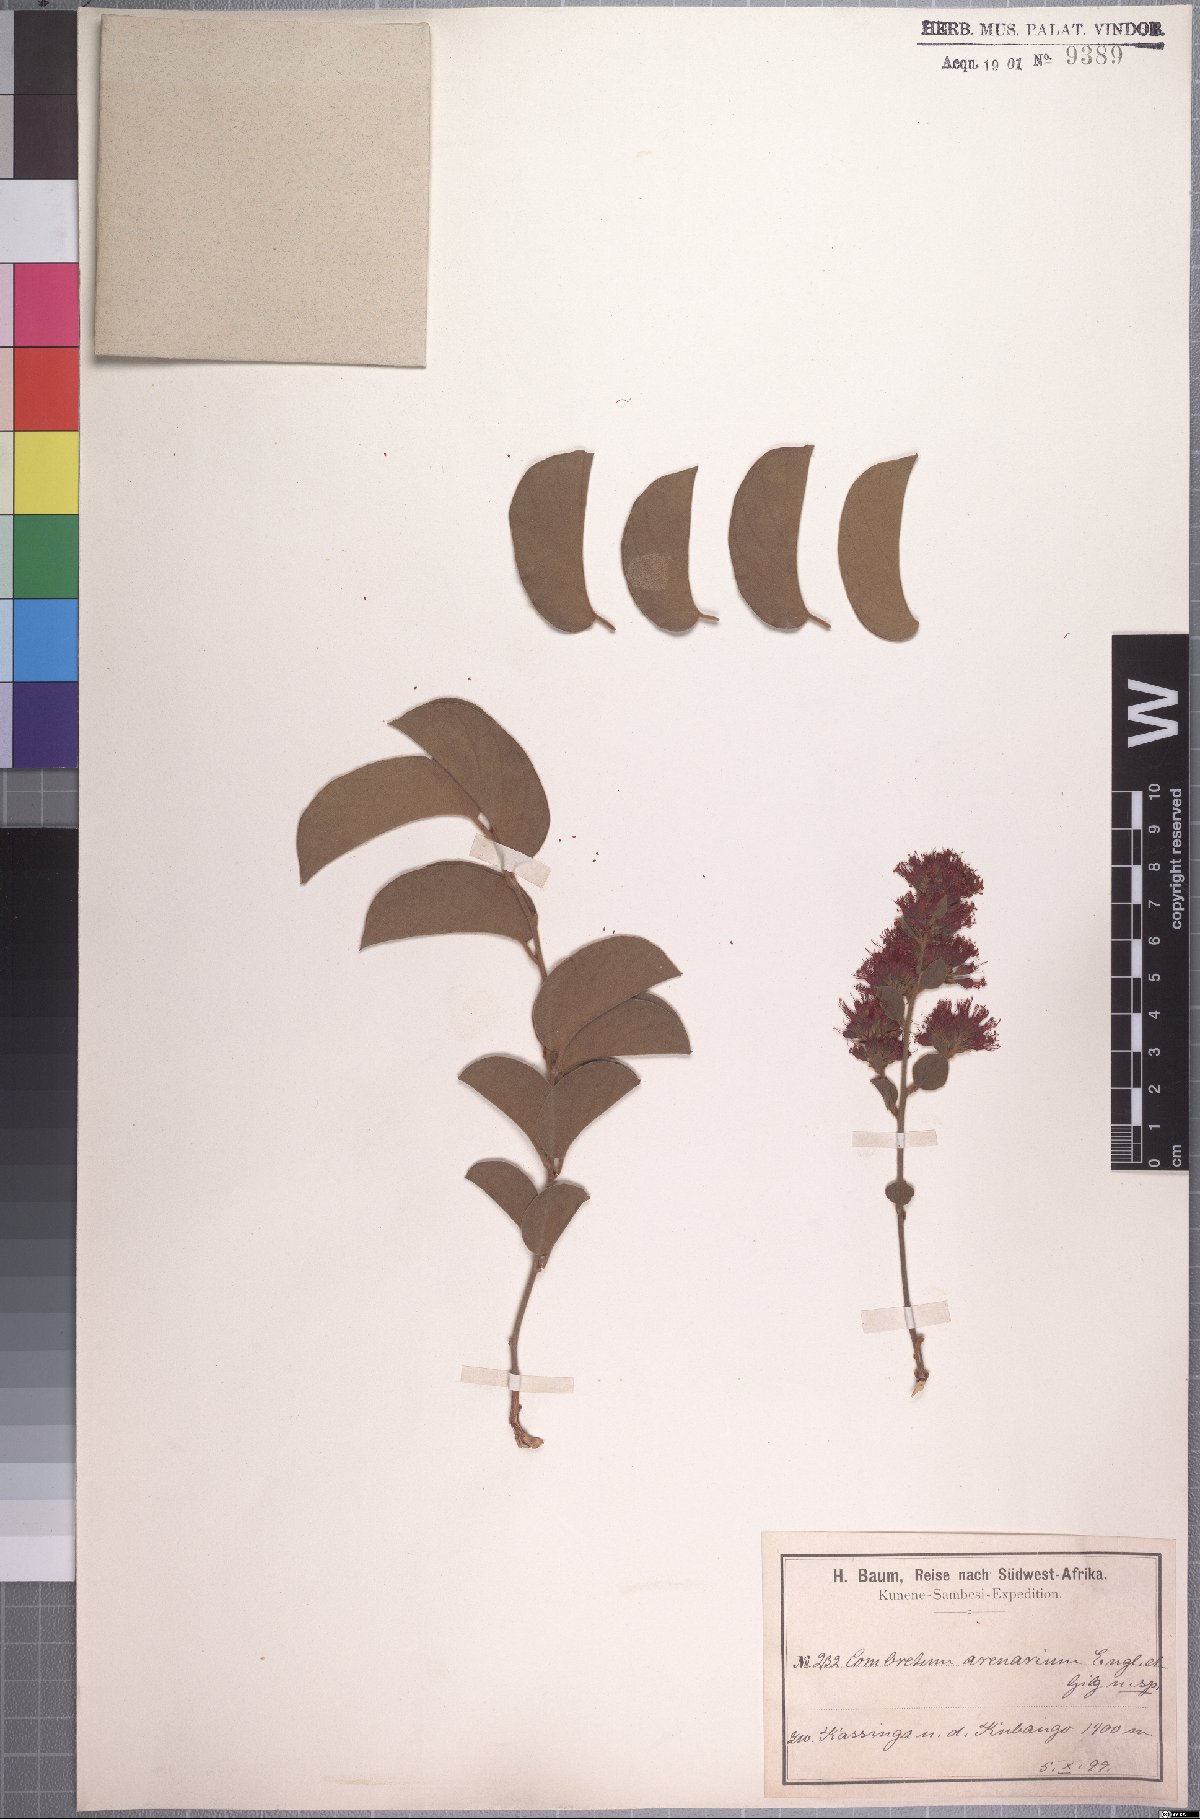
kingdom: Plantae
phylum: Tracheophyta
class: Magnoliopsida
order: Myrtales
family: Combretaceae
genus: Combretum
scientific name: Combretum baumii
